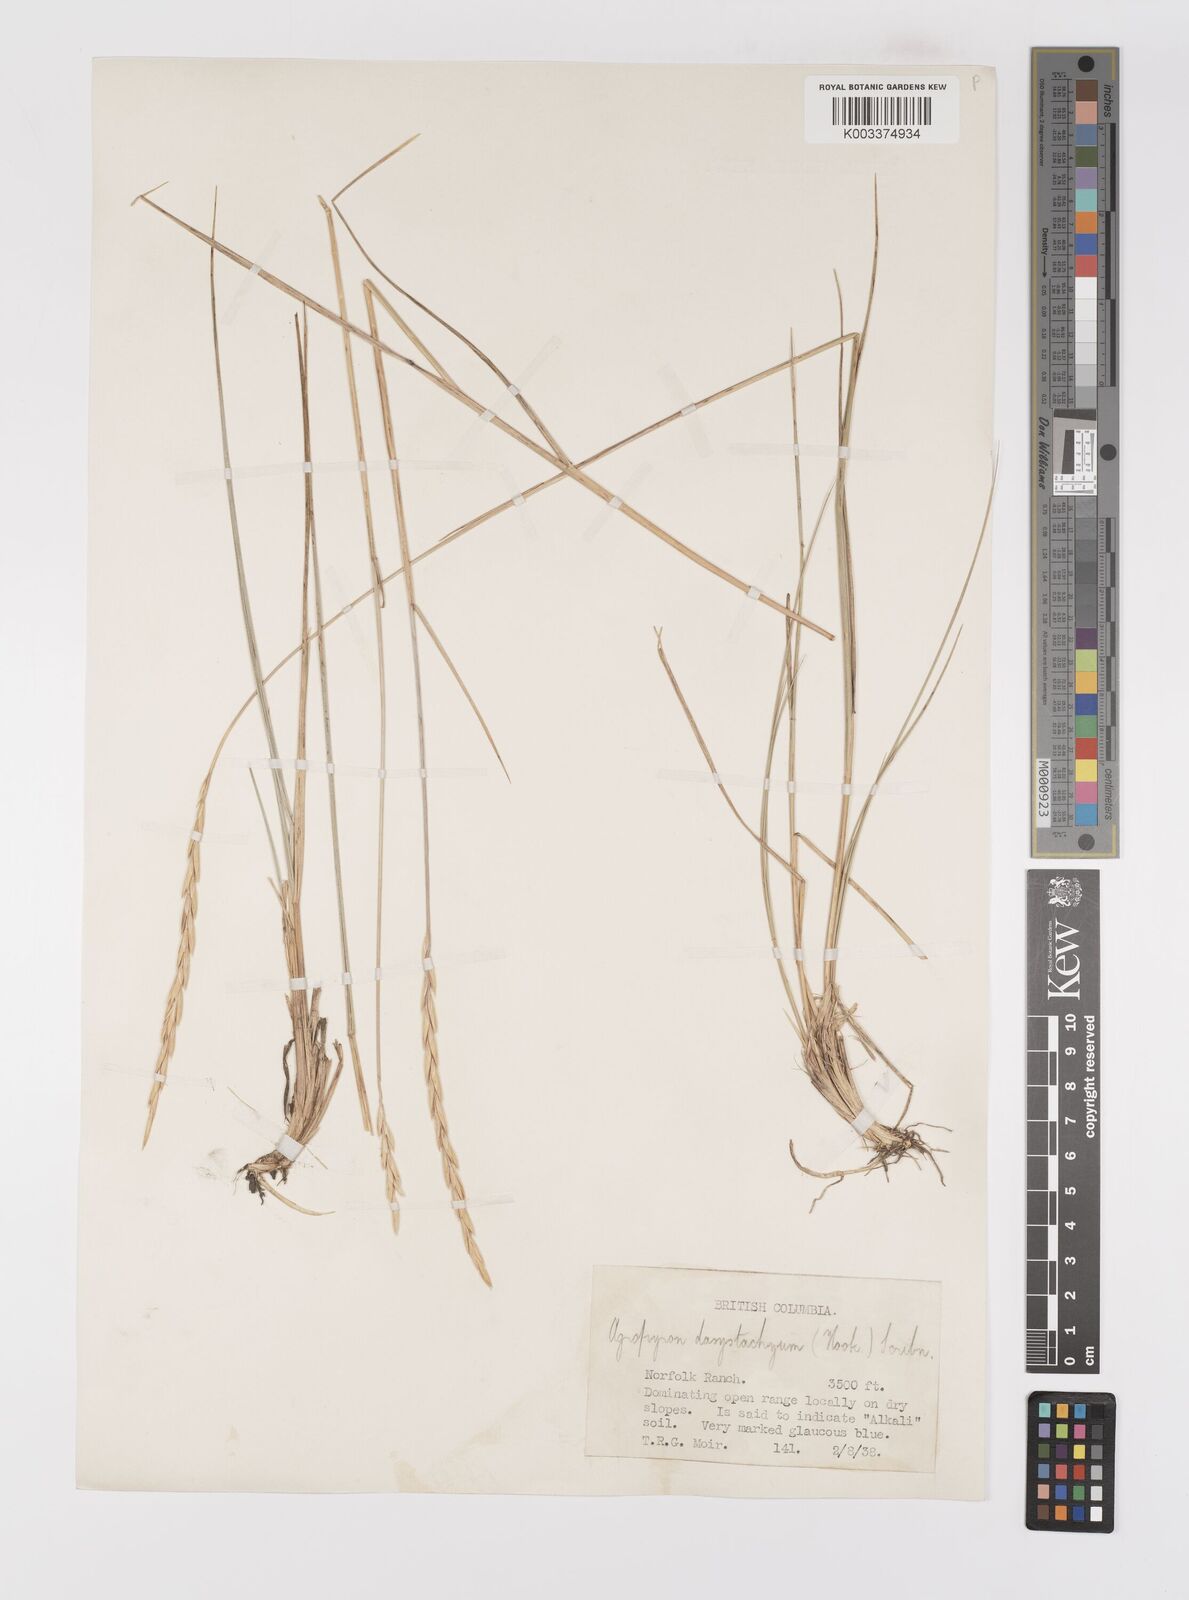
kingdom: Plantae
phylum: Tracheophyta
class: Liliopsida
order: Poales
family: Poaceae
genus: Elymus
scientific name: Elymus lanceolatus
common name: Thick-spike wheatgrass
